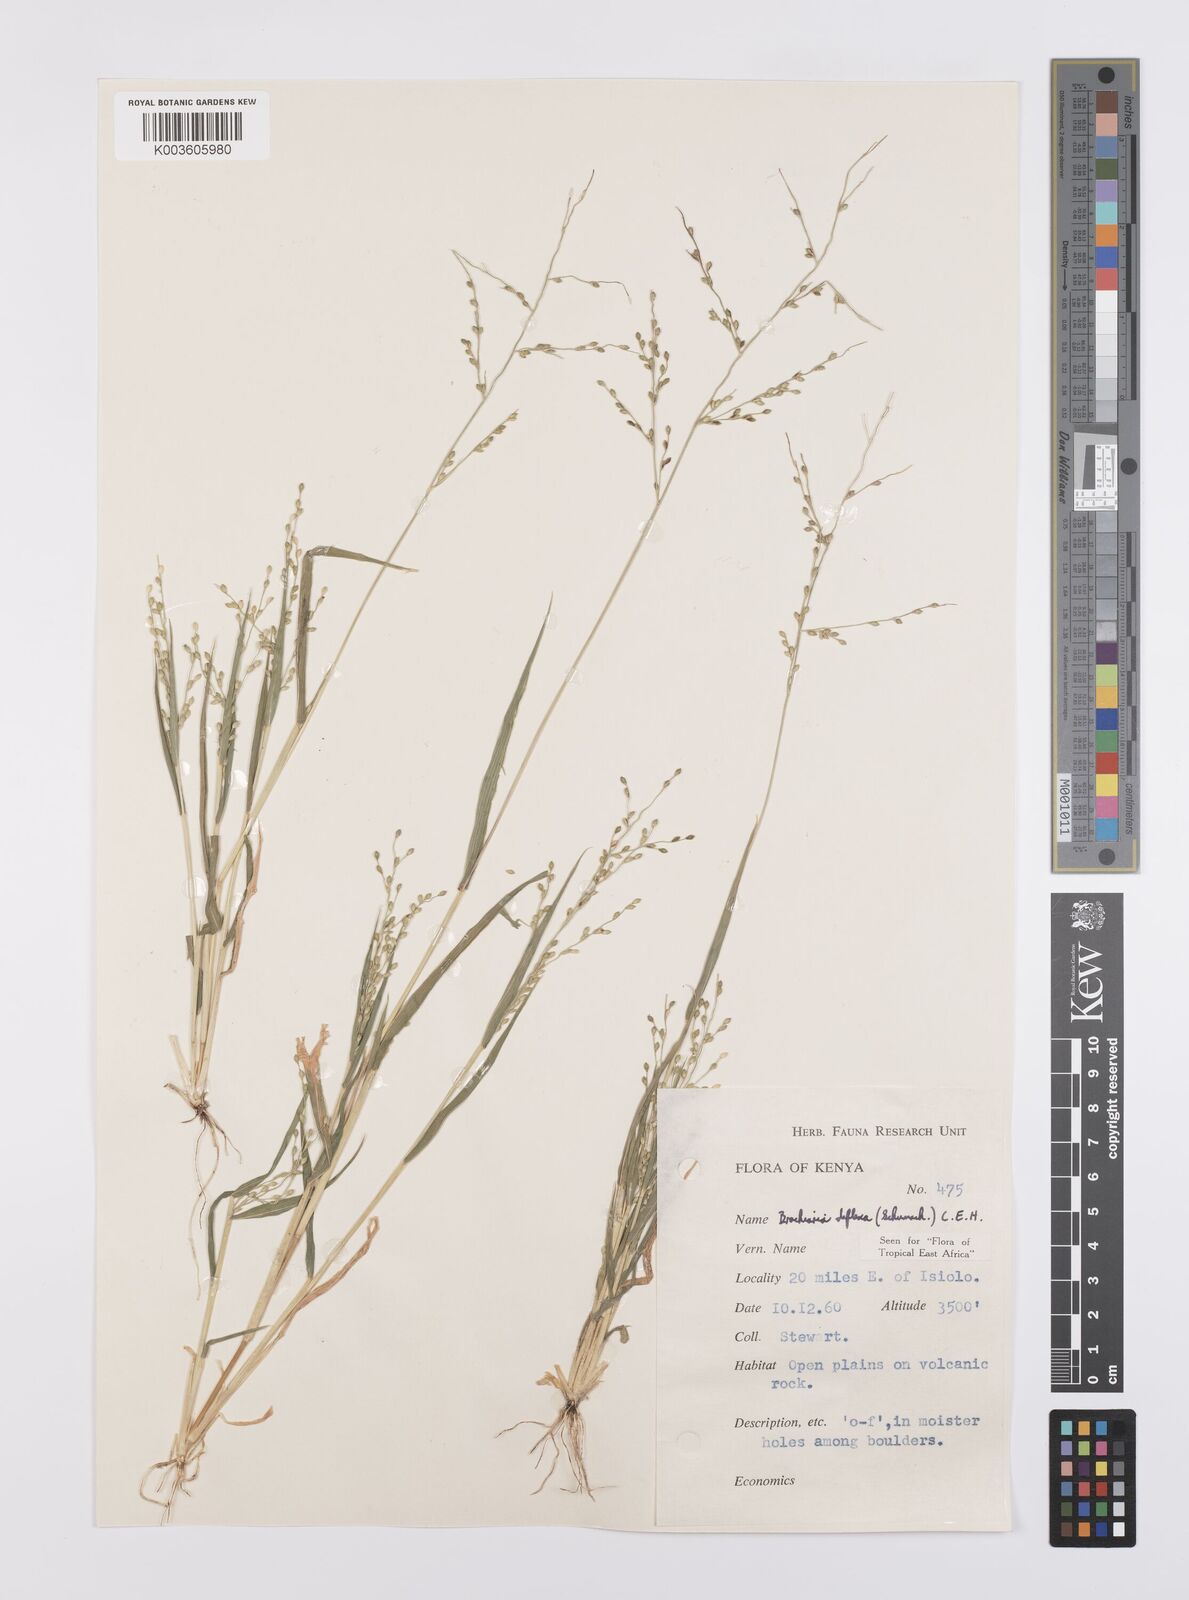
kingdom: Plantae
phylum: Tracheophyta
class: Liliopsida
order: Poales
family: Poaceae
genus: Urochloa
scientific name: Urochloa deflexa
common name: Guinea millet
